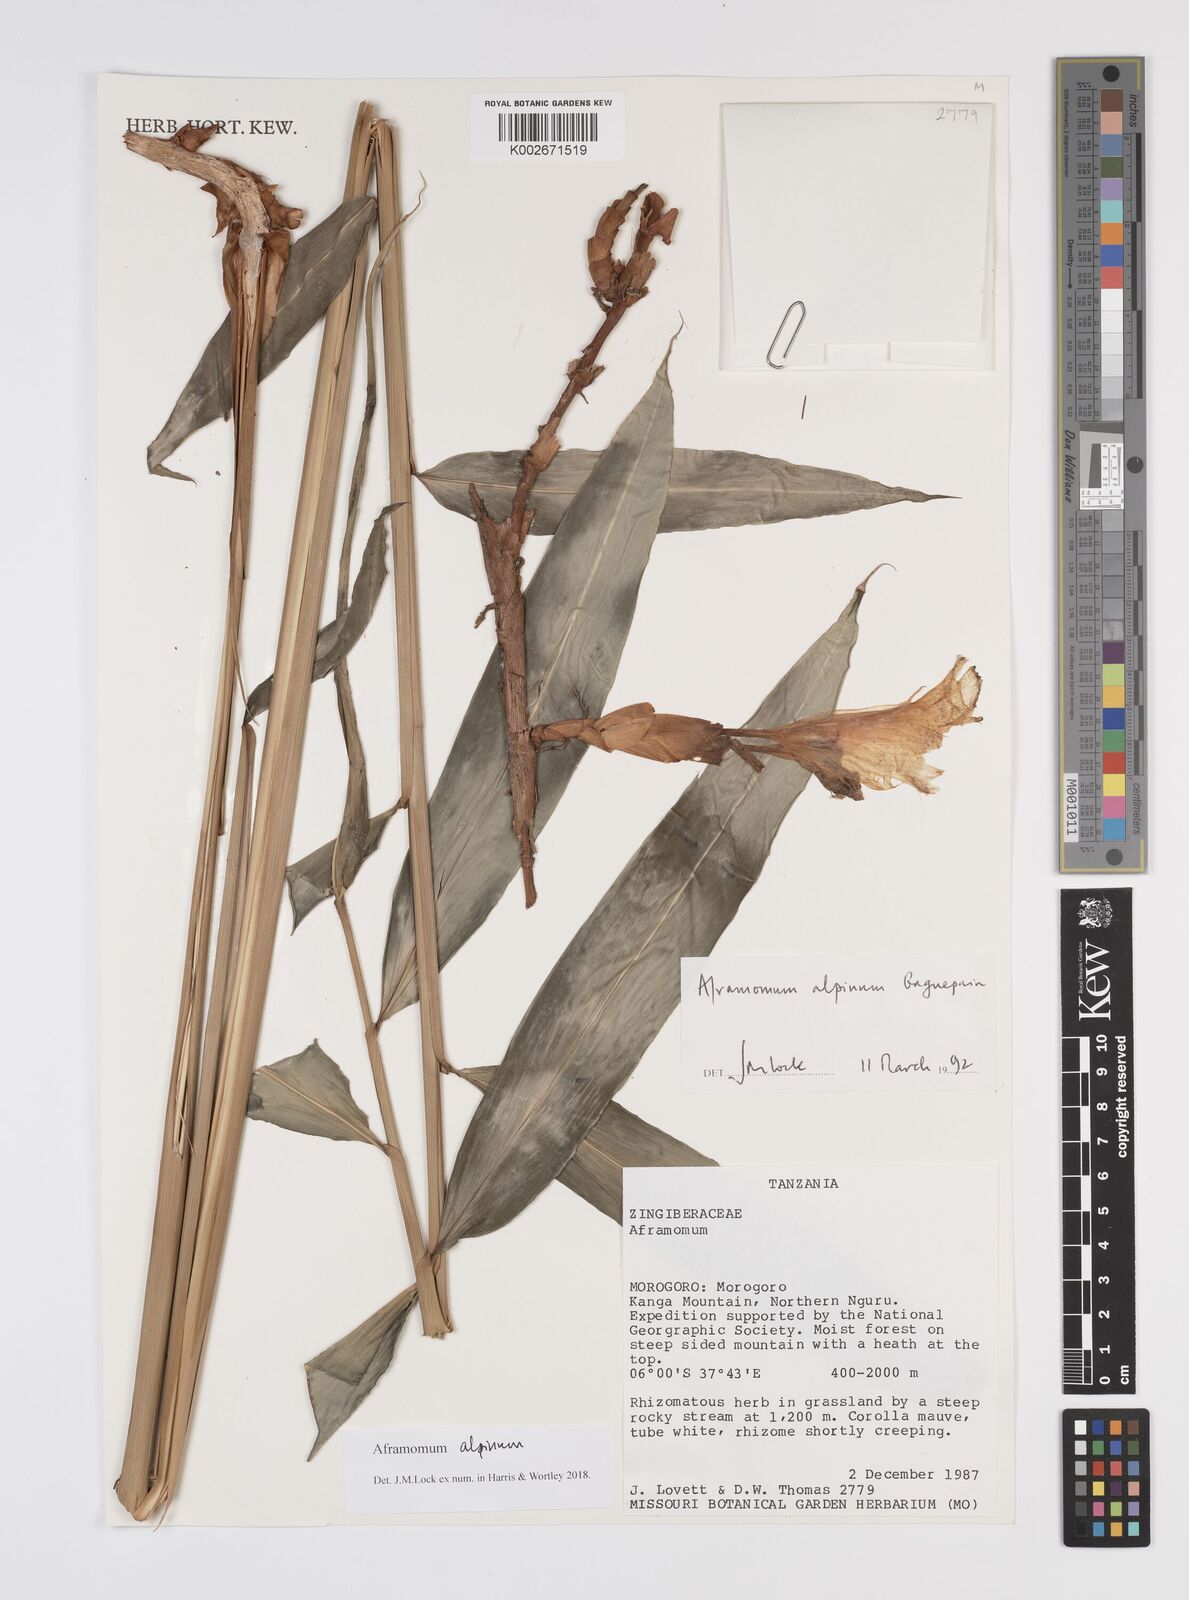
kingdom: Plantae
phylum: Tracheophyta
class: Liliopsida
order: Zingiberales
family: Zingiberaceae
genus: Aframomum
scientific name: Aframomum alpinum
